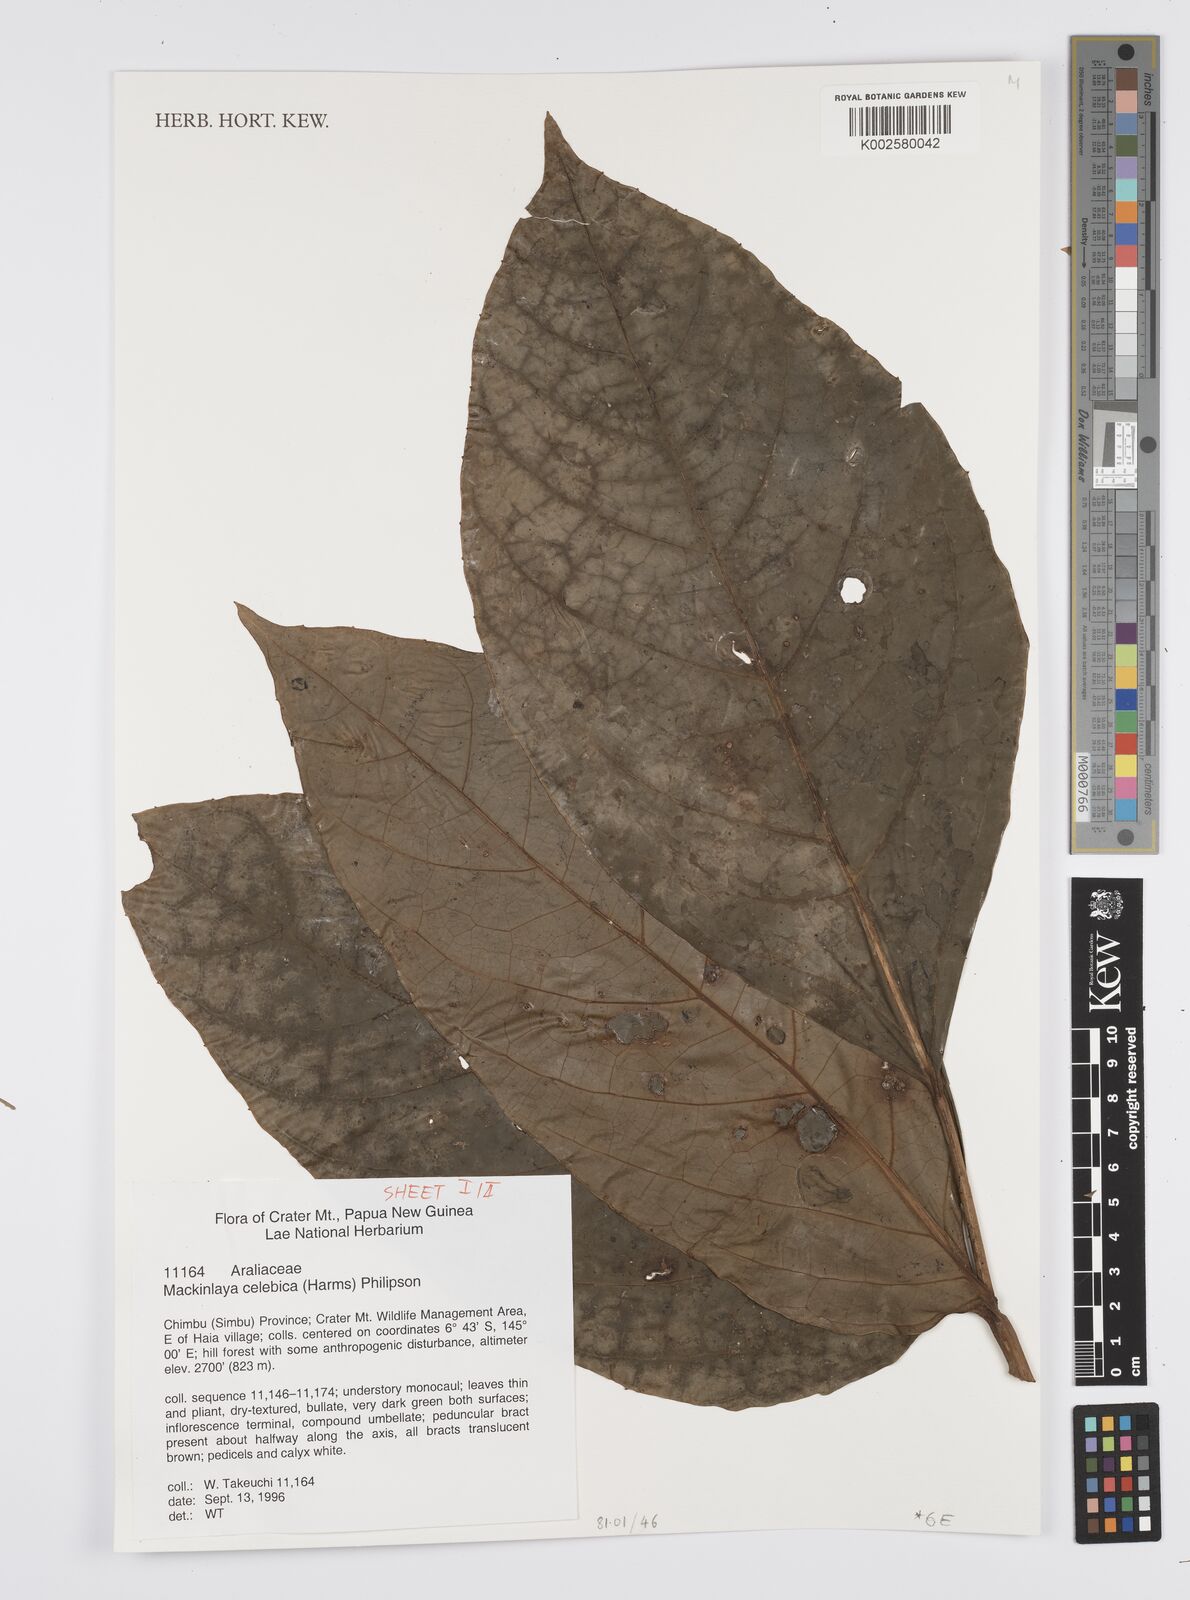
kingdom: Plantae
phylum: Tracheophyta
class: Magnoliopsida
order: Apiales
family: Apiaceae
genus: Mackinlaya
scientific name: Mackinlaya celebica
